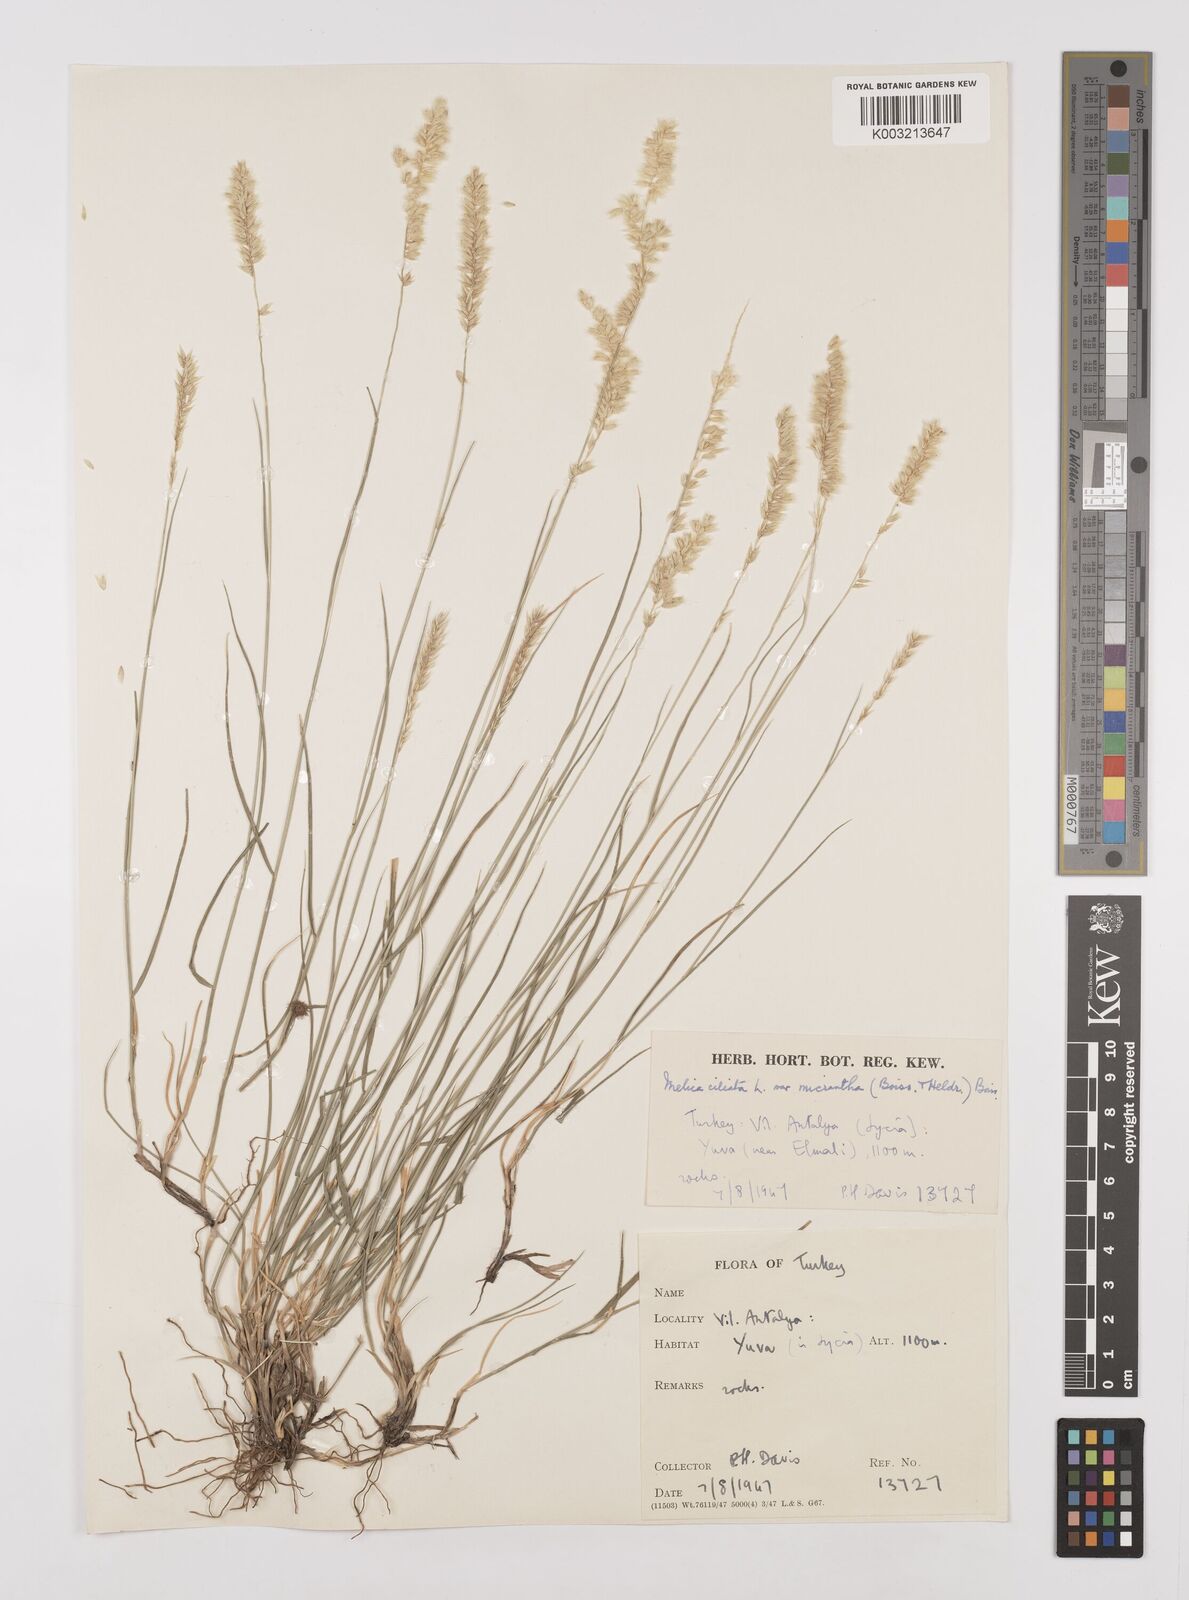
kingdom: Plantae
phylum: Tracheophyta
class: Liliopsida
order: Poales
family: Poaceae
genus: Melica
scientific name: Melica ciliata
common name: Hairy melicgrass
